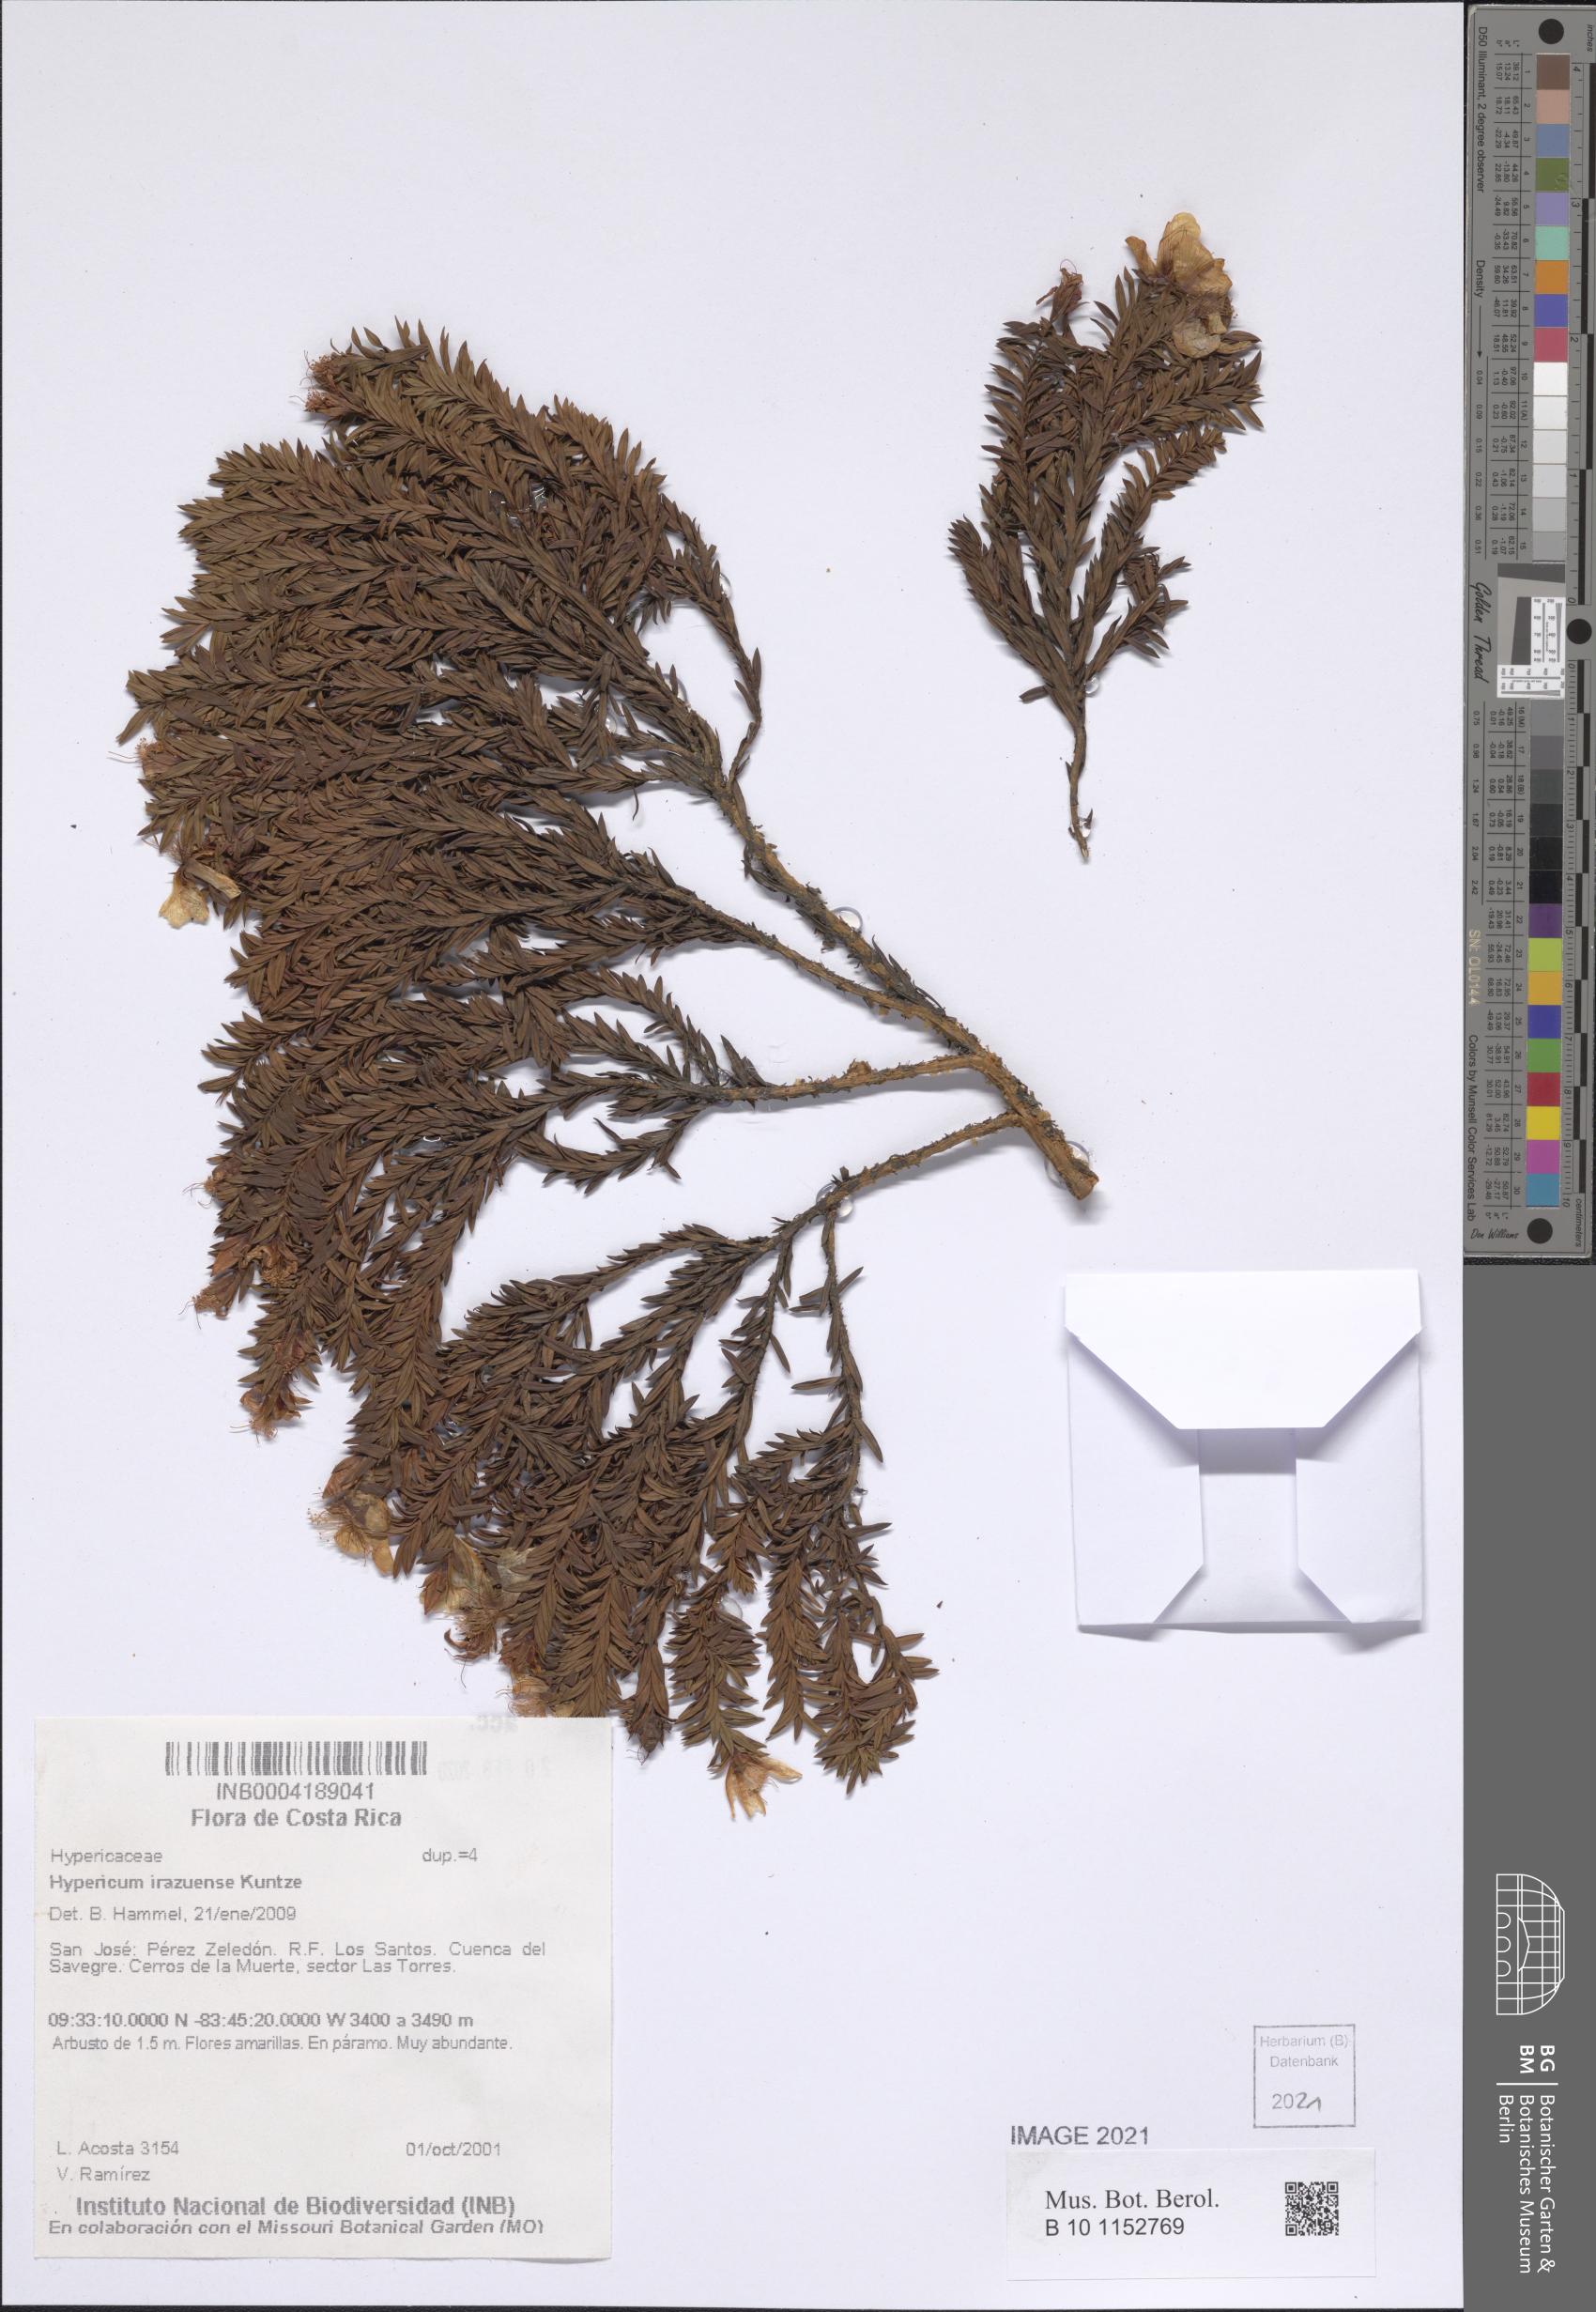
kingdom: Plantae
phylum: Tracheophyta
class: Magnoliopsida
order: Malpighiales
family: Hypericaceae
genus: Hypericum
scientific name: Hypericum irazuense
